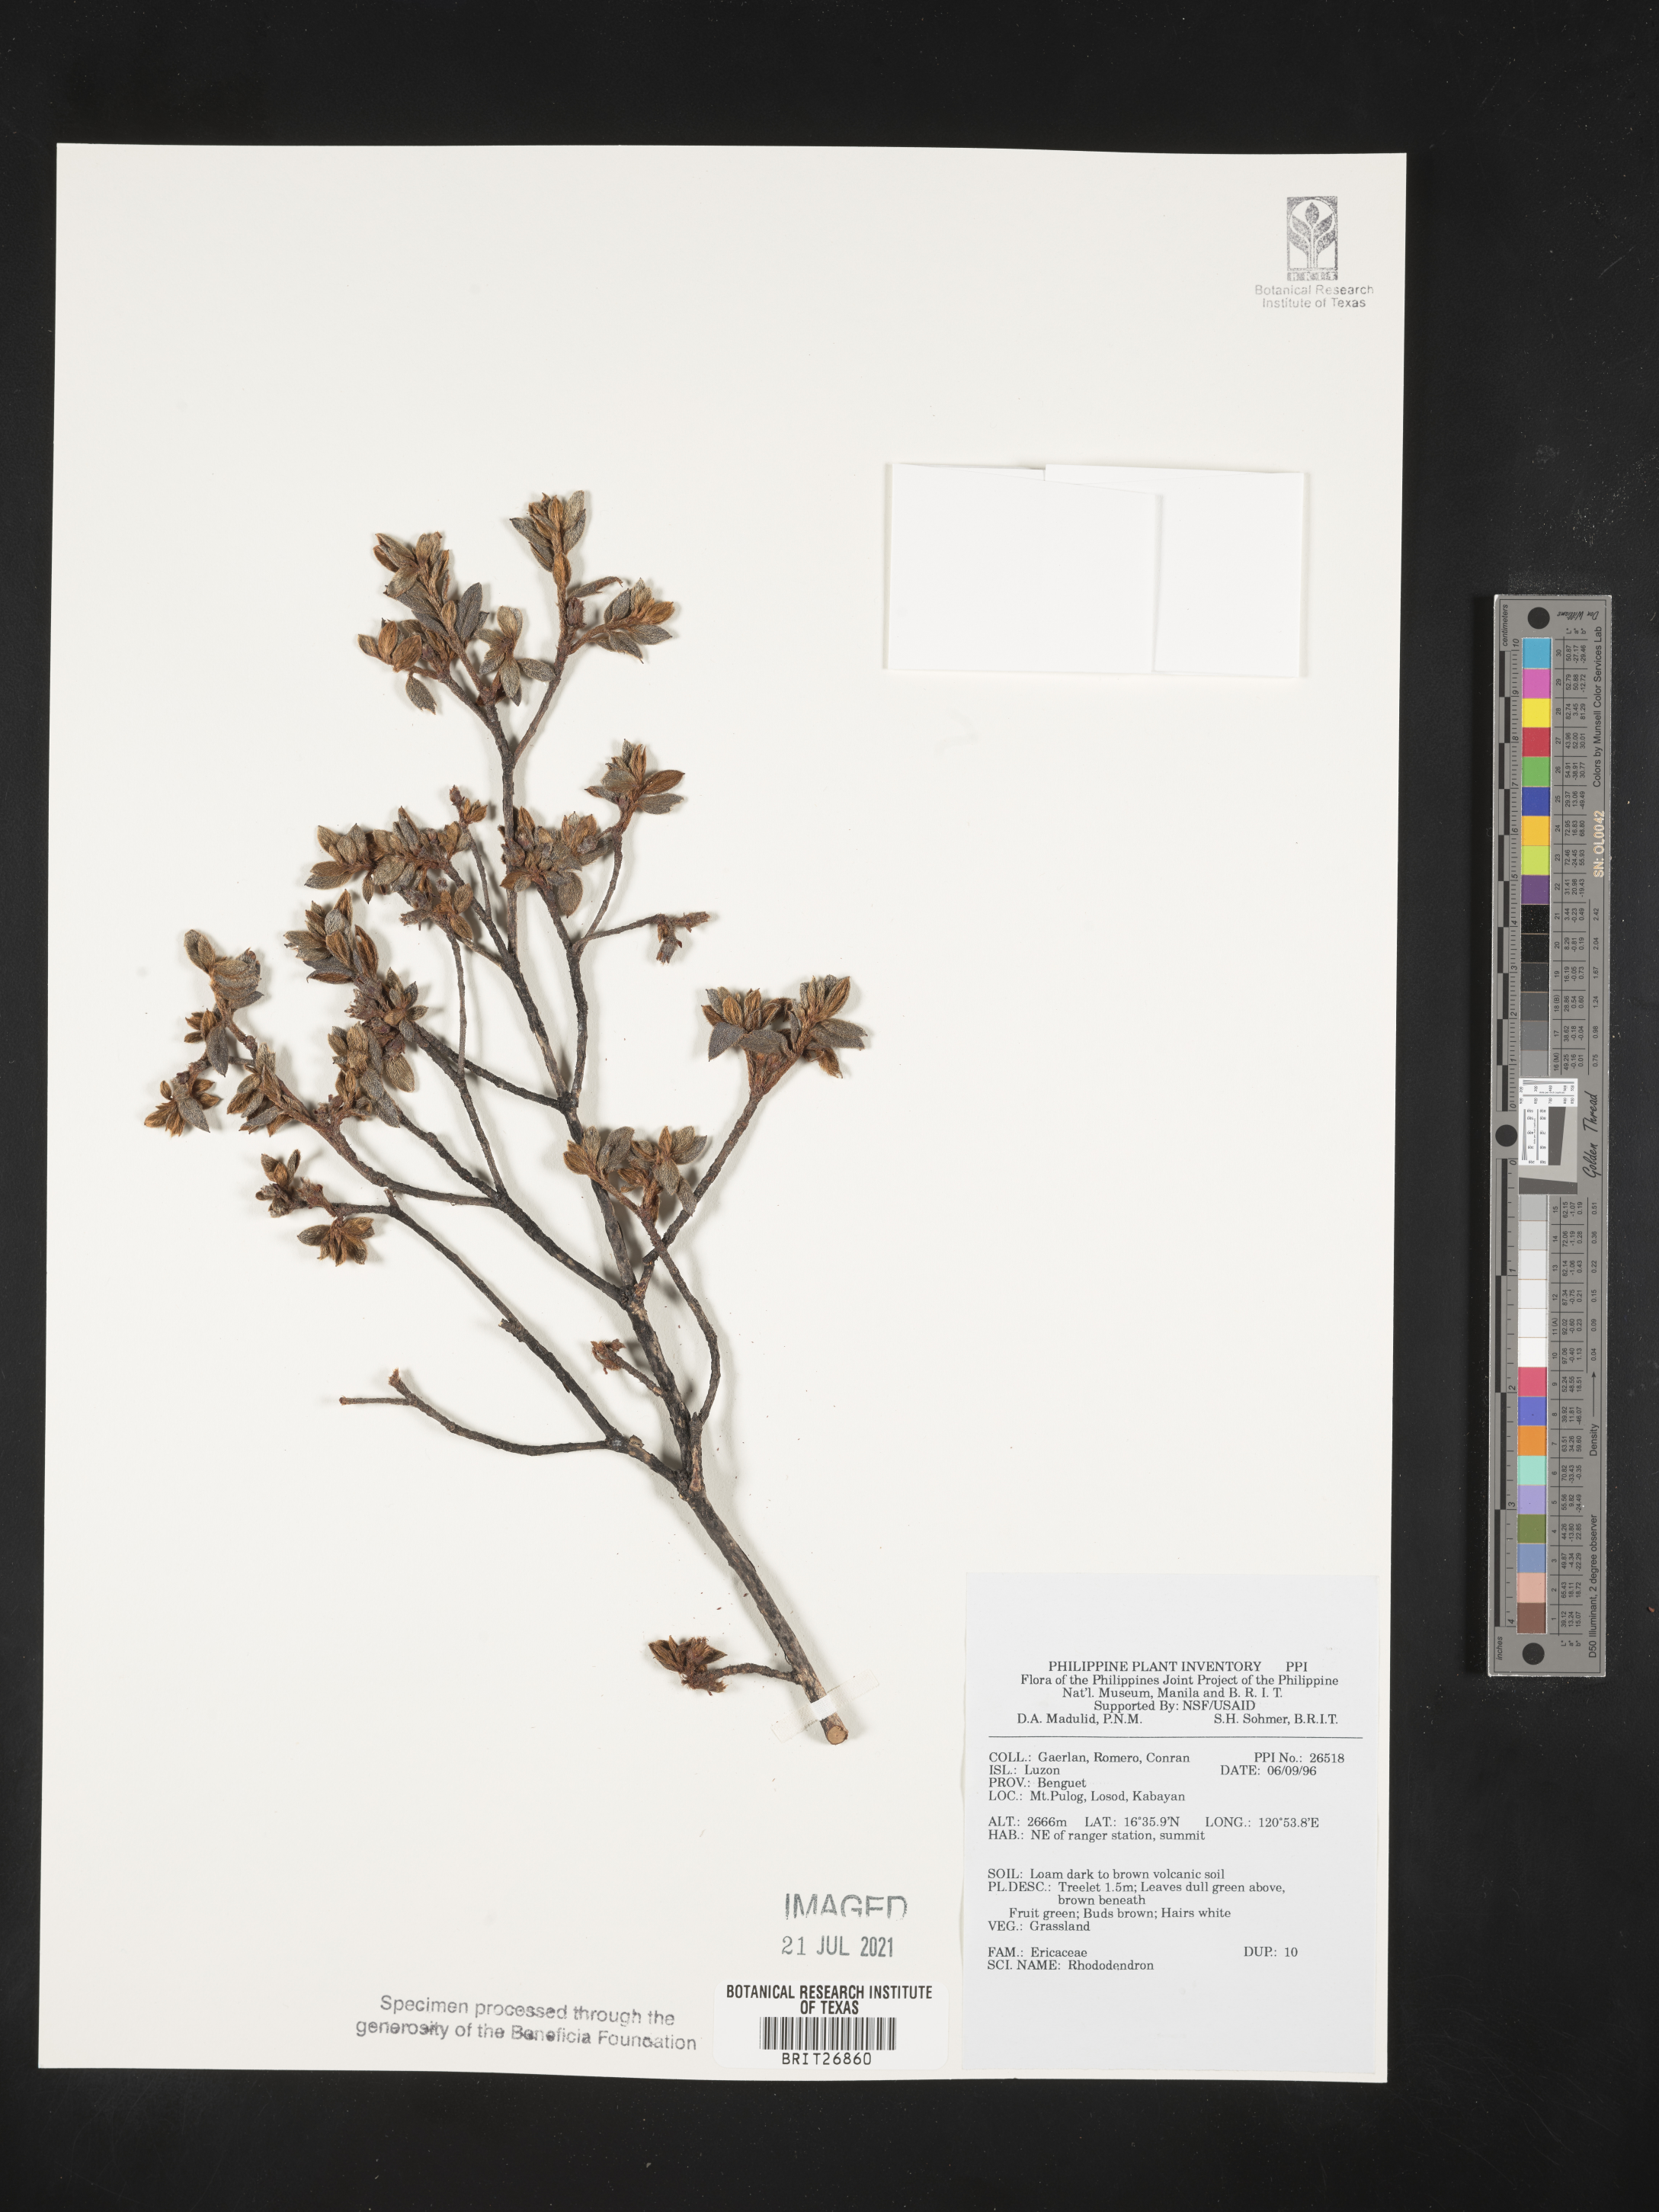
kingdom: Plantae
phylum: Tracheophyta
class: Magnoliopsida
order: Ericales
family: Ericaceae
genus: Rhododendron
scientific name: Rhododendron
